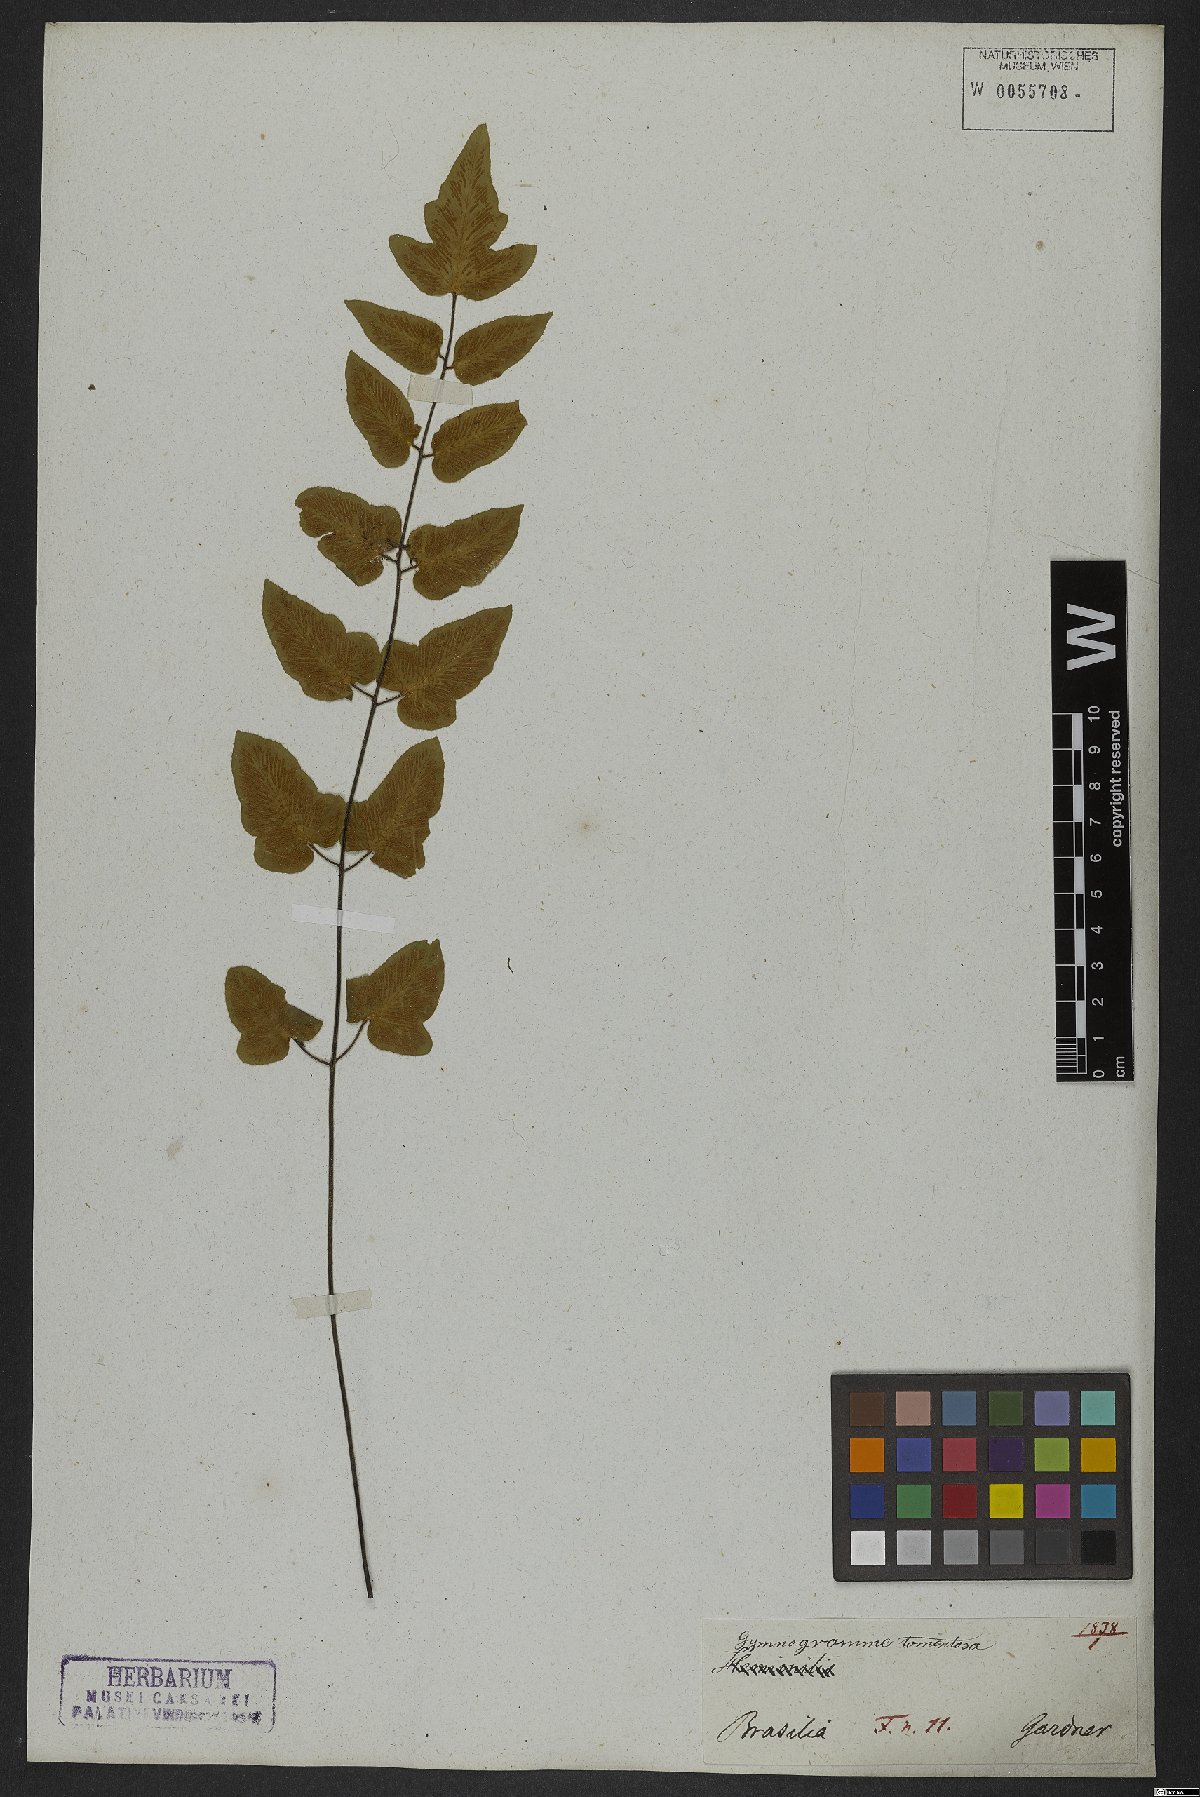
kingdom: Plantae
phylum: Tracheophyta
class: Polypodiopsida
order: Polypodiales
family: Pteridaceae
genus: Hemionitis
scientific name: Hemionitis tomentosa
